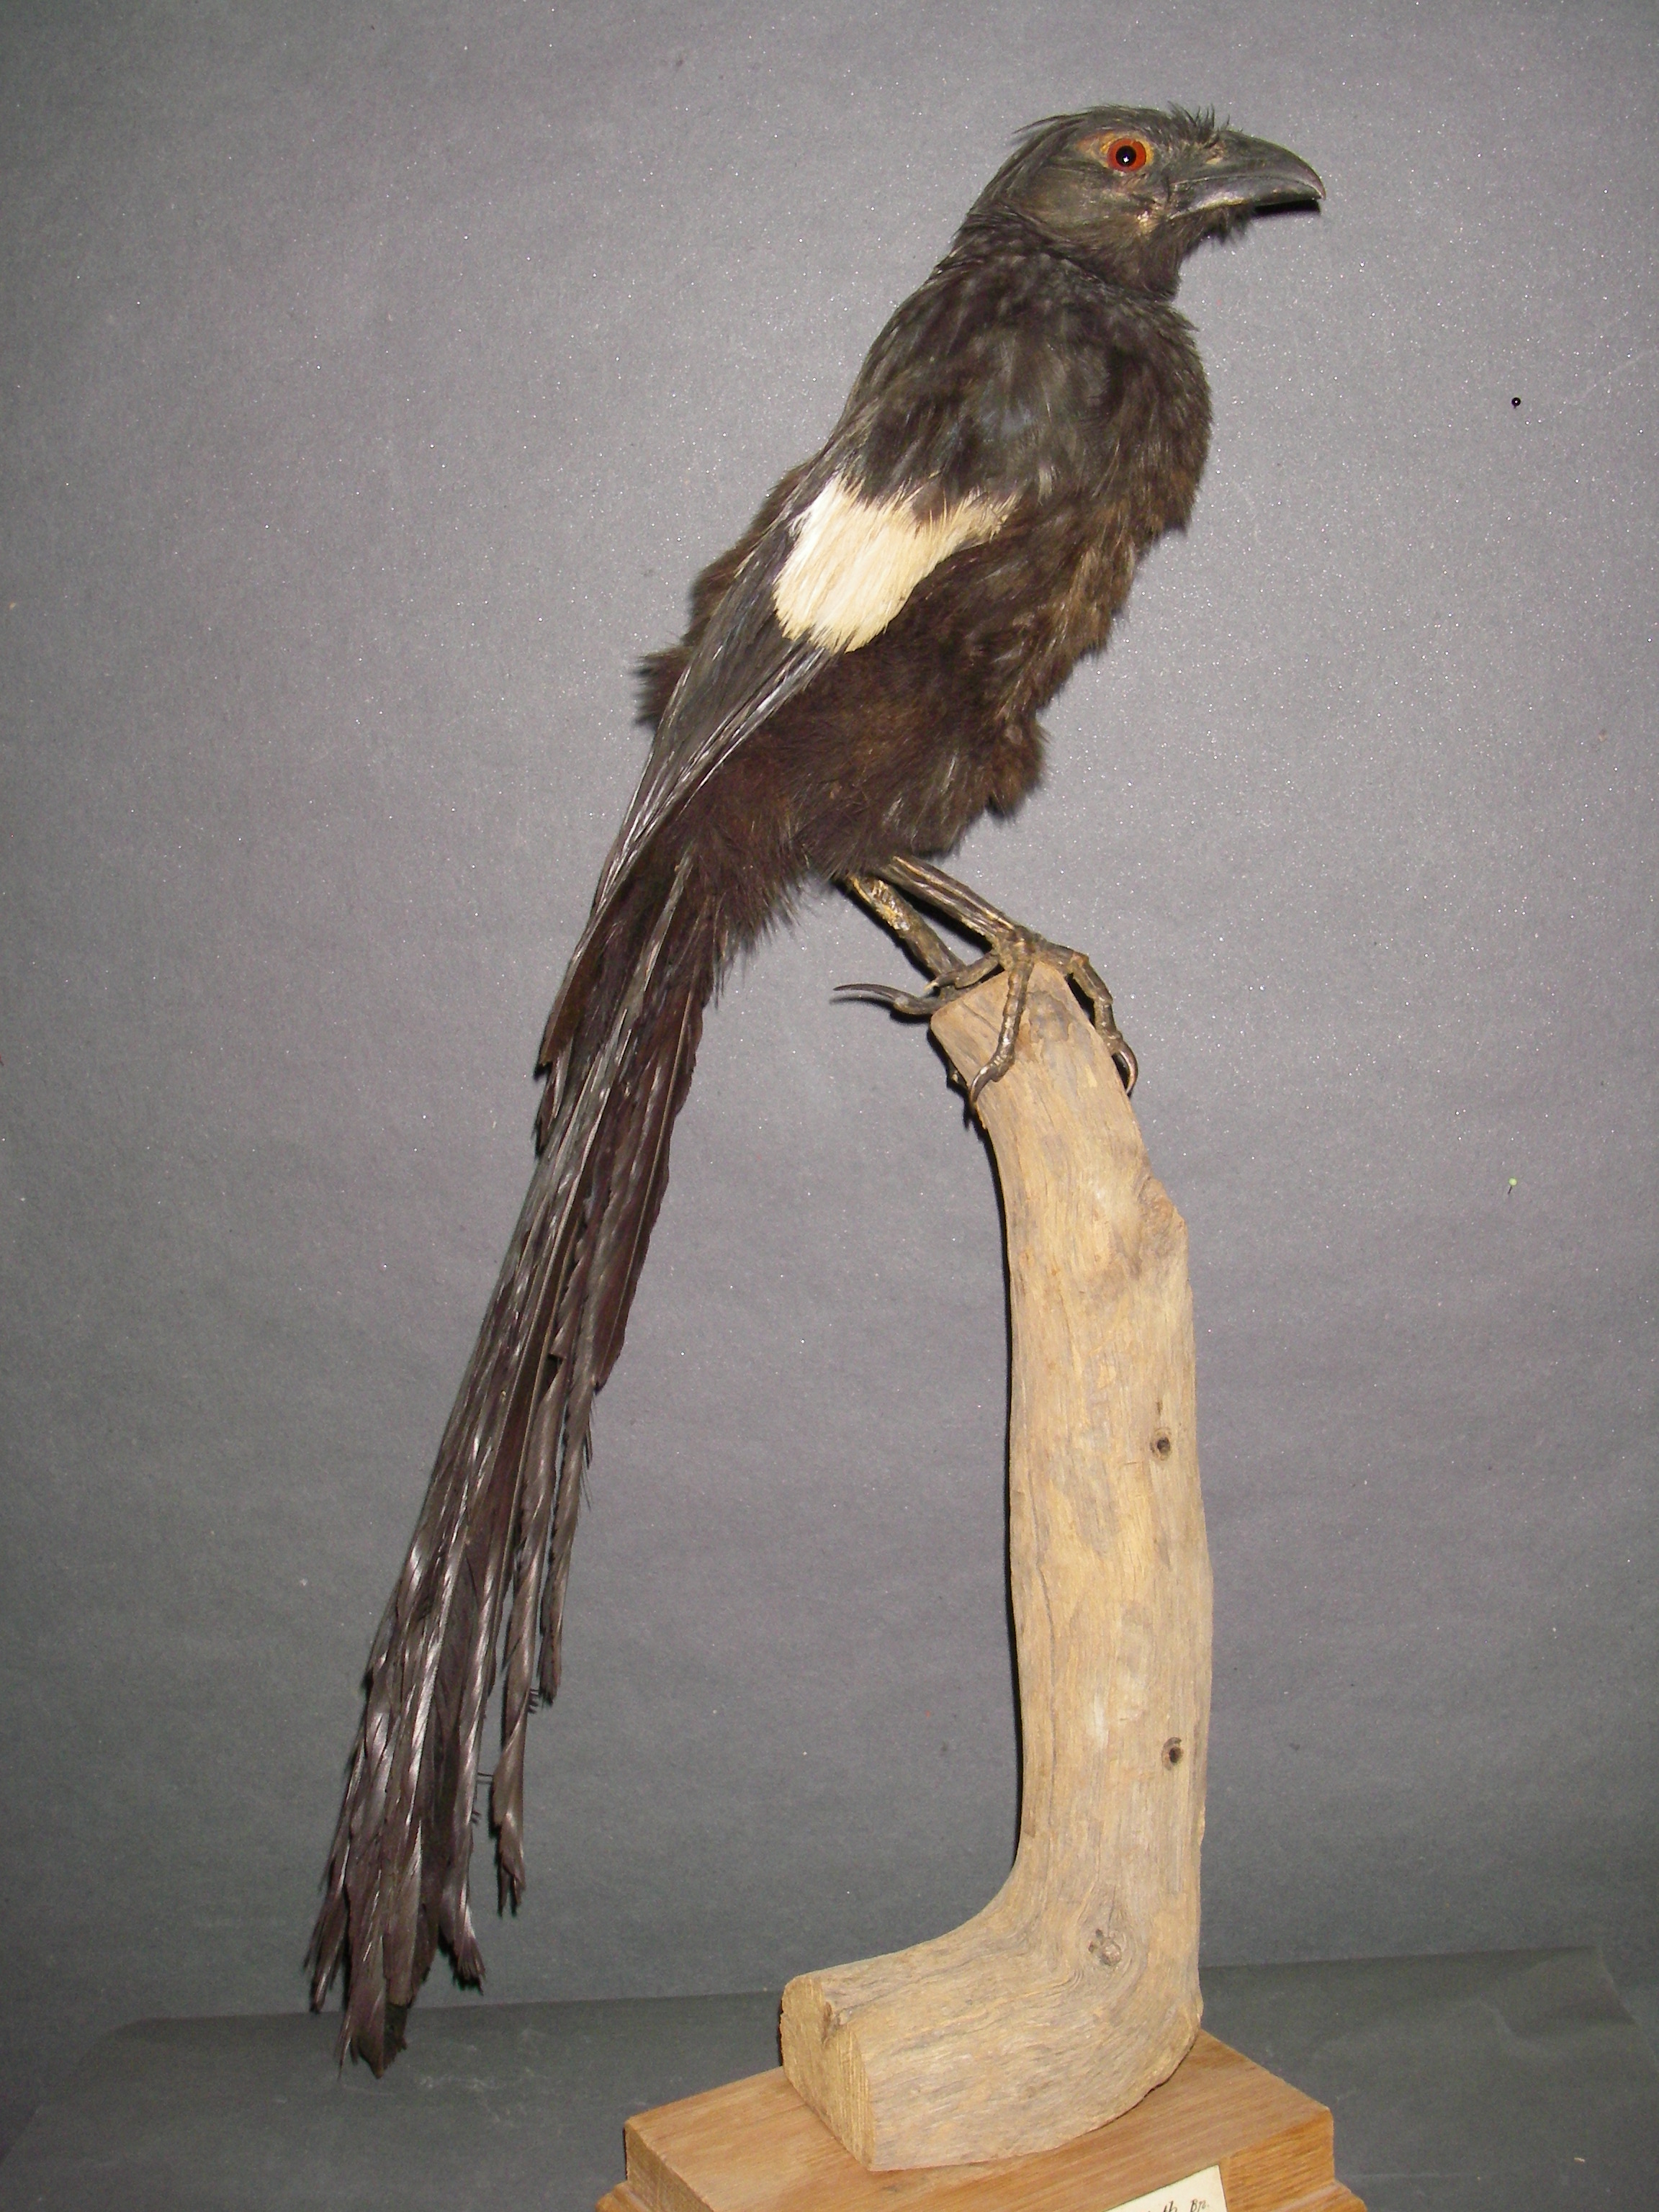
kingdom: Animalia
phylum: Chordata
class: Aves
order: Cuculiformes
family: Cuculidae
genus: Centropus
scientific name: Centropus goliath
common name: Goliath coucal
